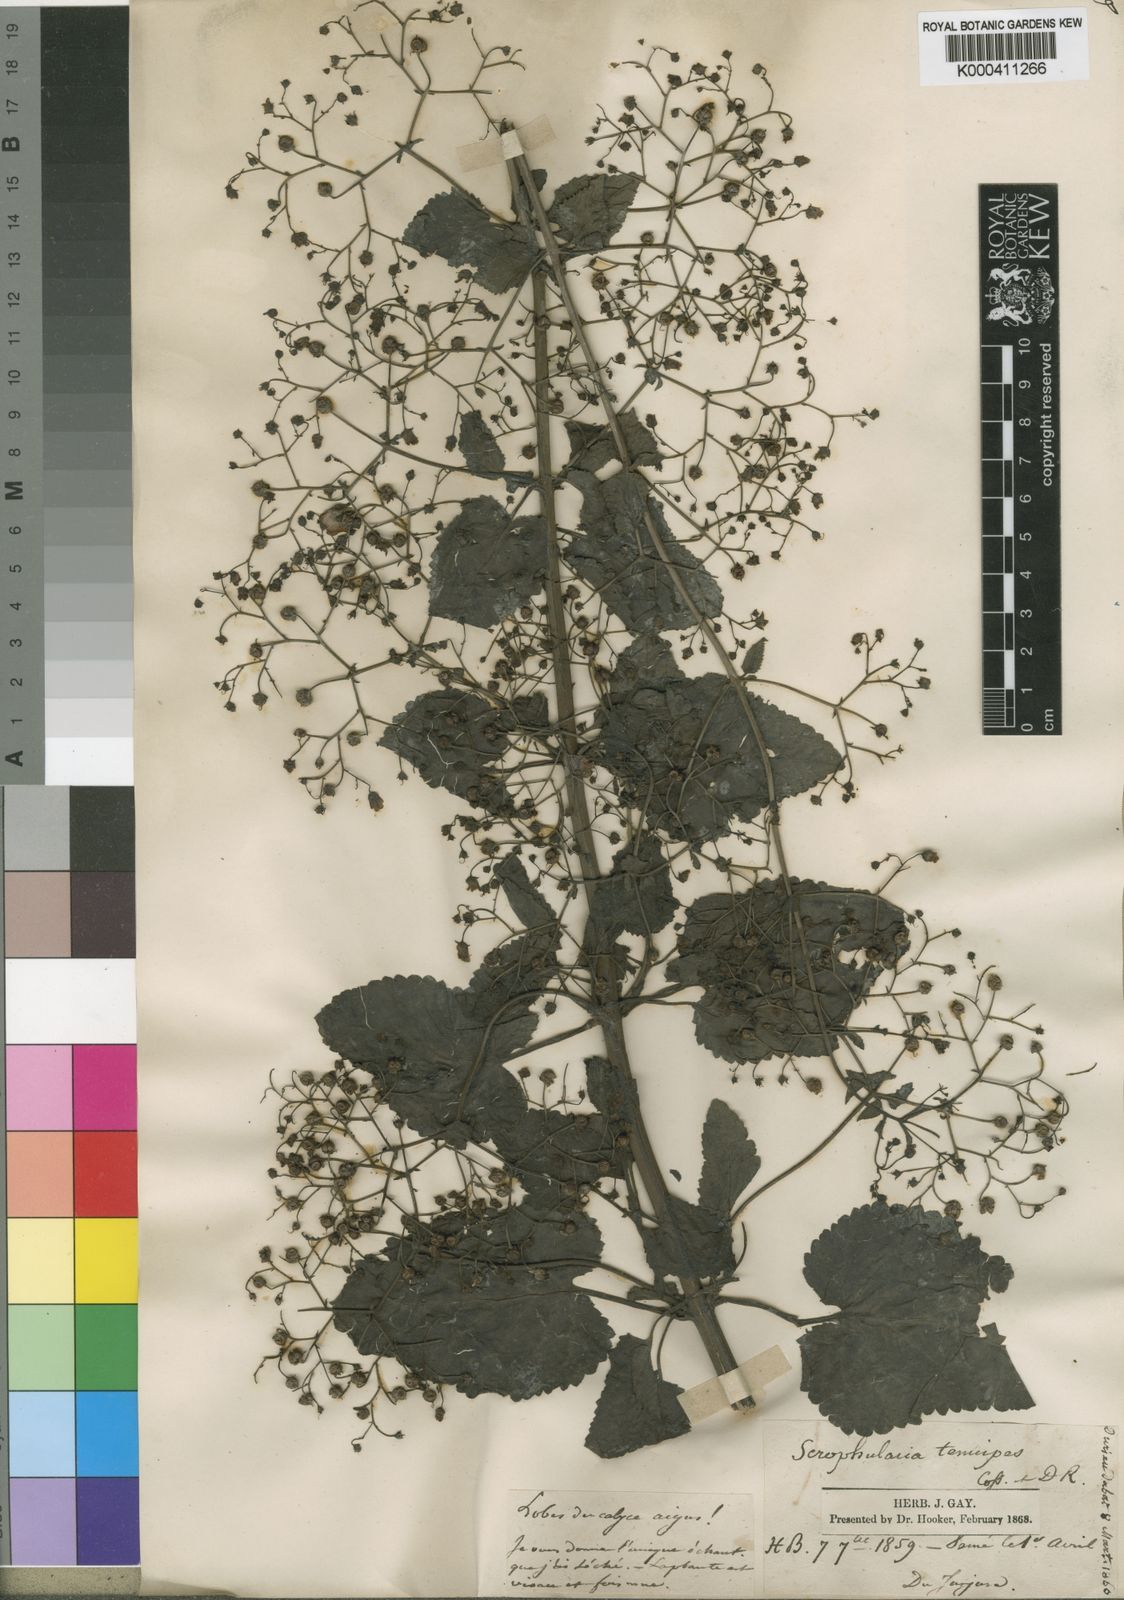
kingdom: Plantae
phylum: Tracheophyta
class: Magnoliopsida
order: Lamiales
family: Scrophulariaceae
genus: Scrophularia
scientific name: Scrophularia tenuipes
